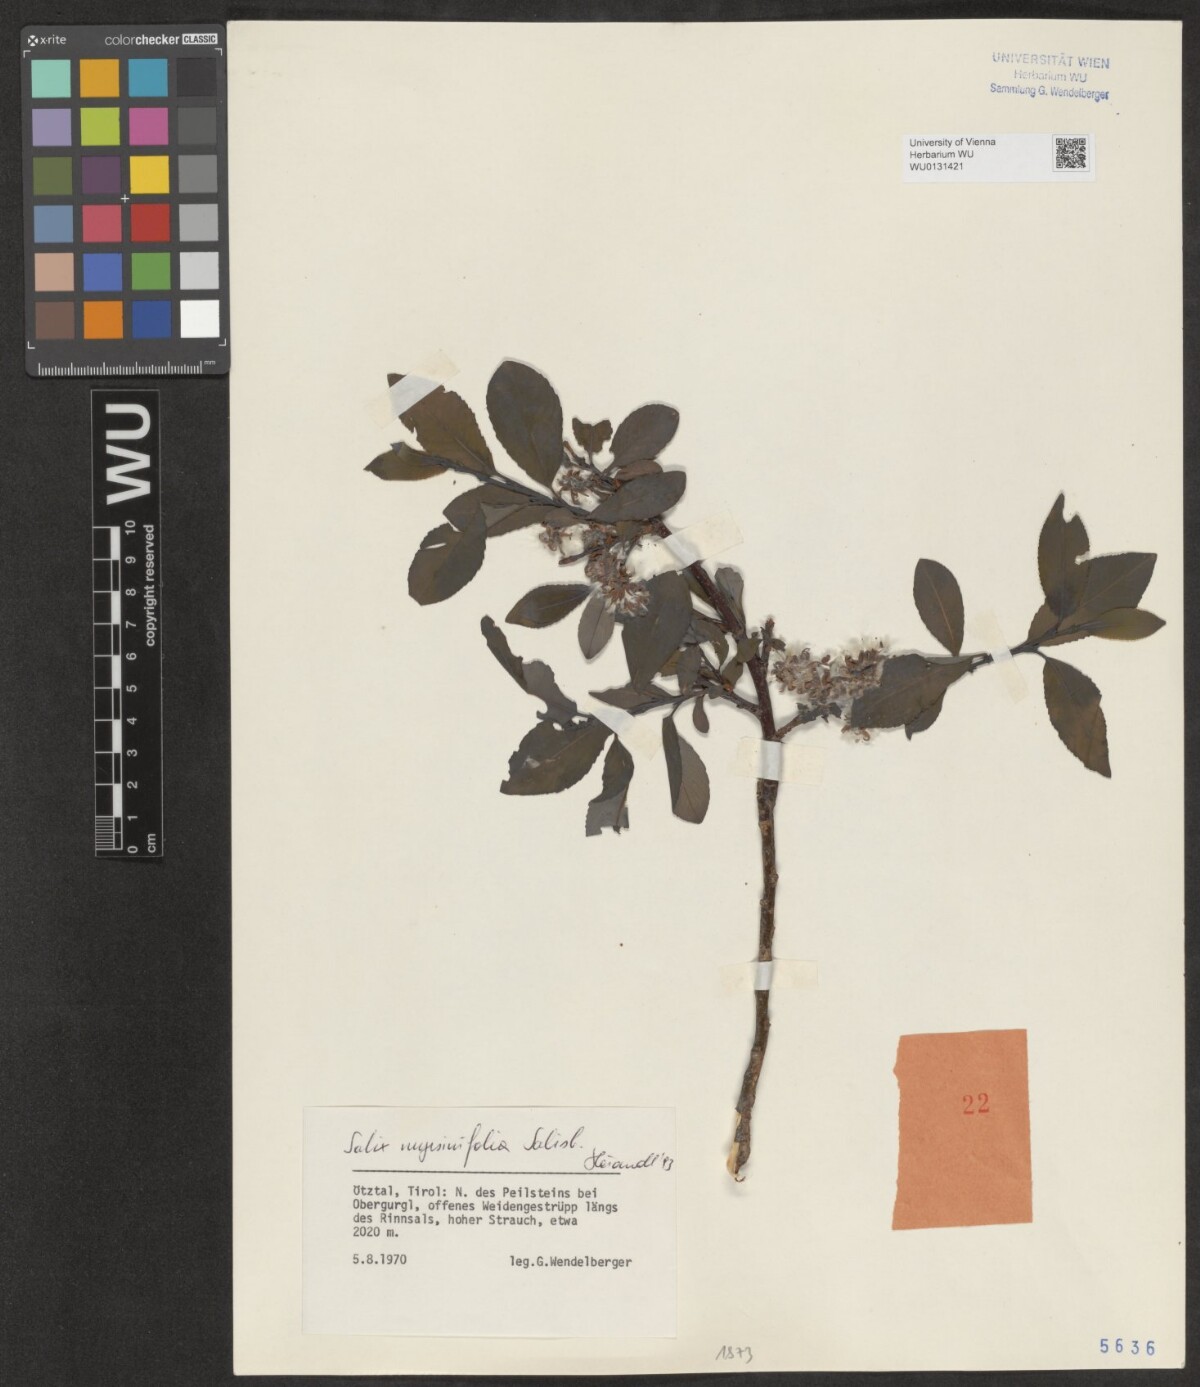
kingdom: Plantae
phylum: Tracheophyta
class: Magnoliopsida
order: Malpighiales
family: Salicaceae
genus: Salix
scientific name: Salix myrsinifolia
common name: Dark-leaved willow
